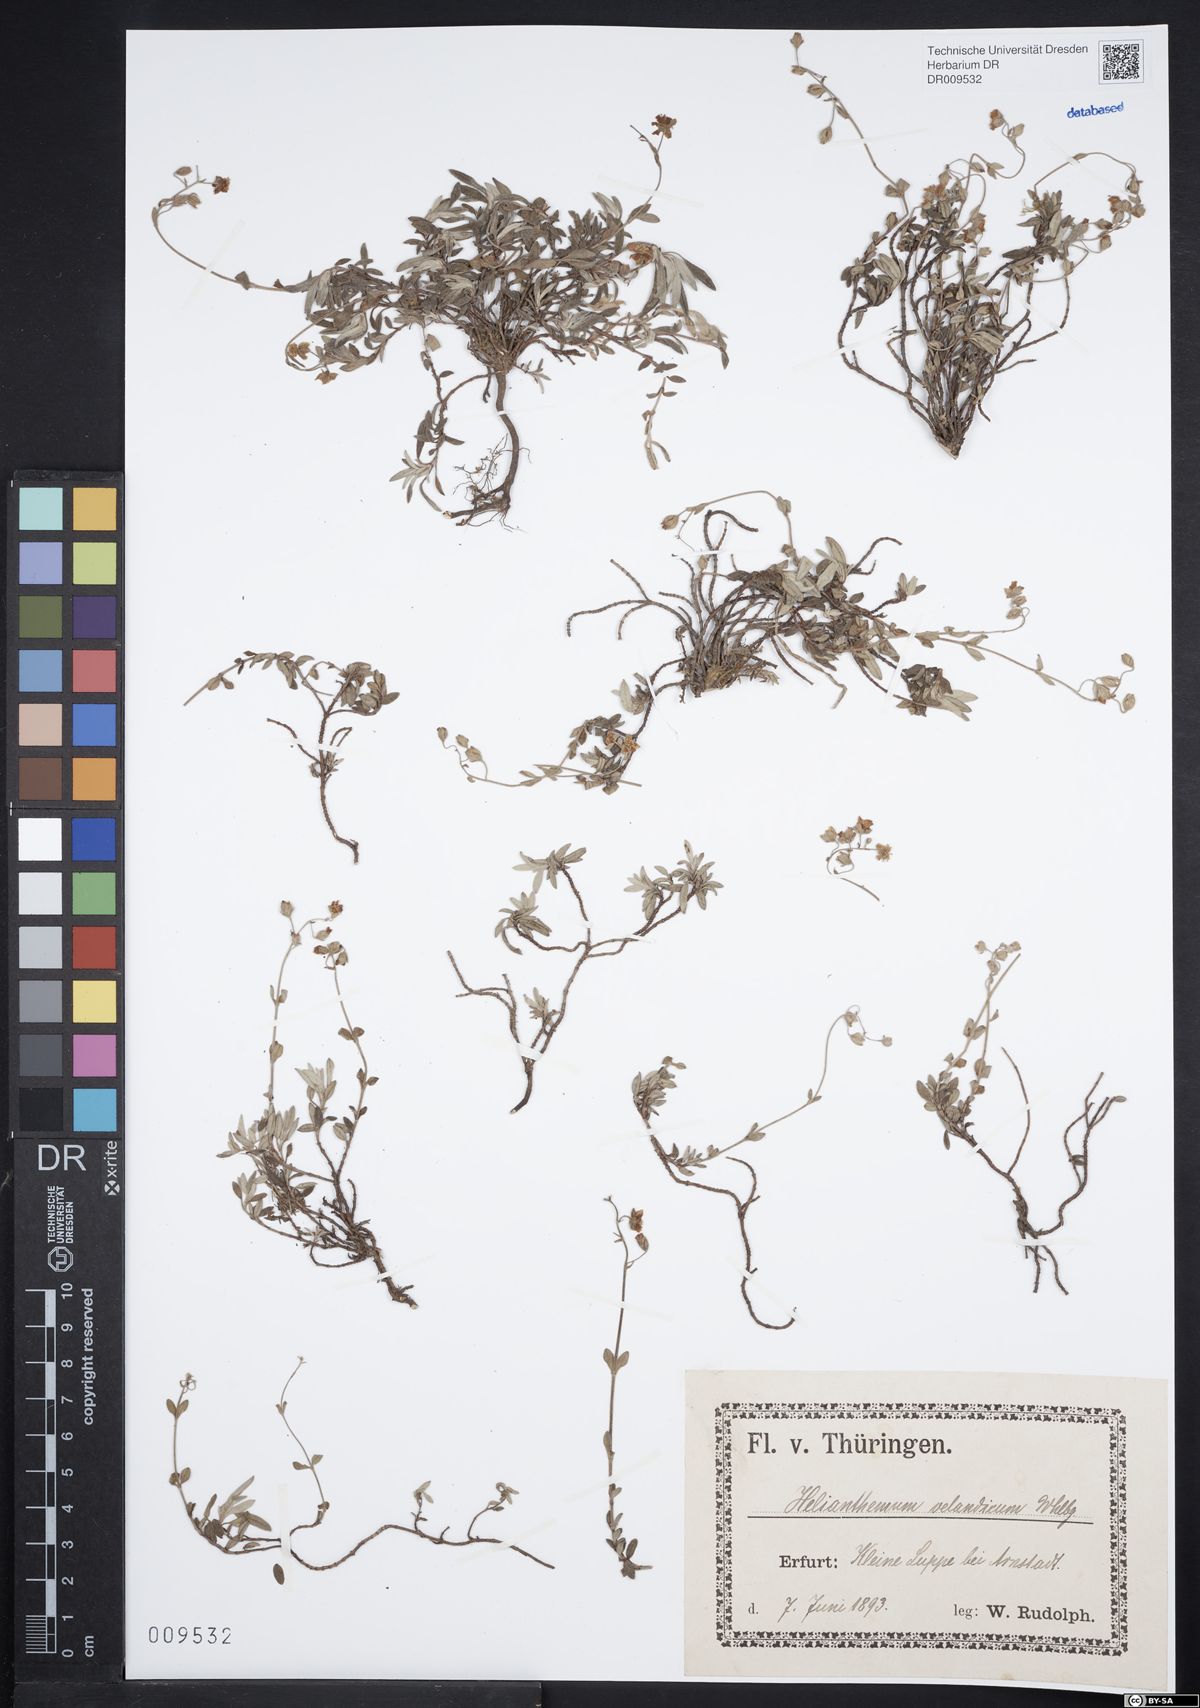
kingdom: Plantae
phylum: Tracheophyta
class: Magnoliopsida
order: Malvales
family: Cistaceae
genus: Helianthemum
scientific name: Helianthemum canum
